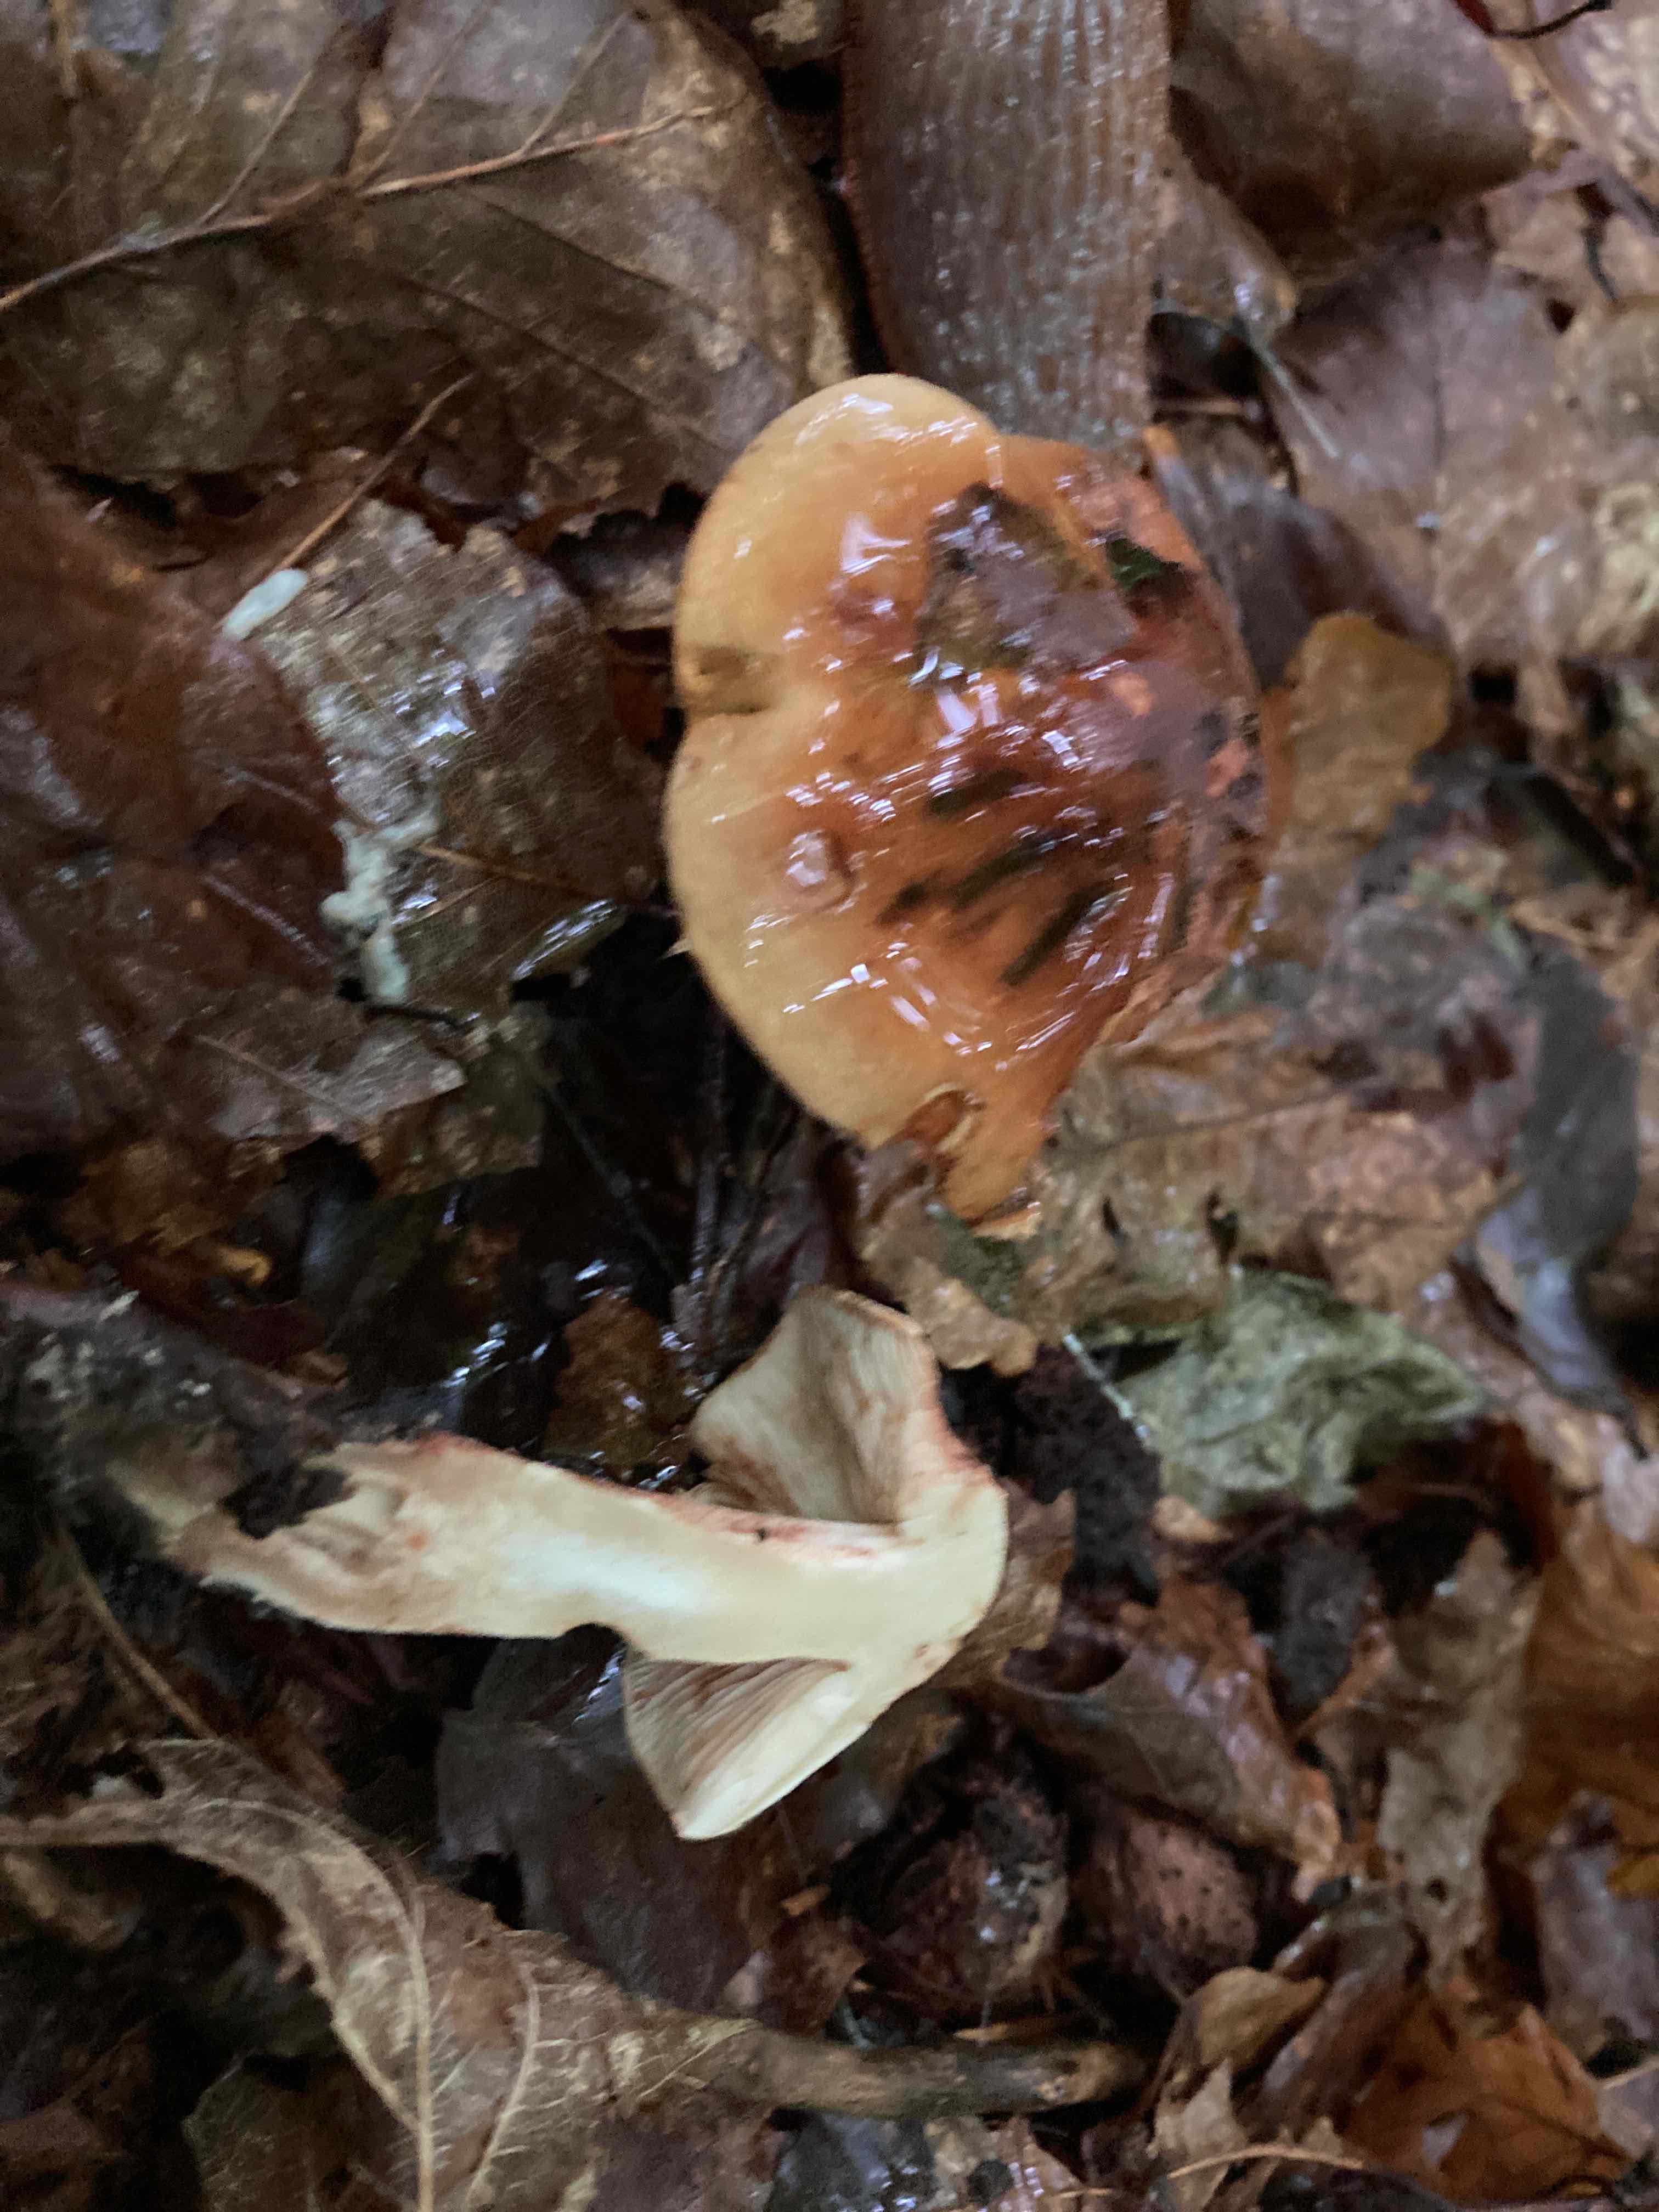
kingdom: Fungi
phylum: Basidiomycota
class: Agaricomycetes
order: Agaricales
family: Tricholomataceae
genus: Tricholoma
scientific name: Tricholoma ustale
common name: sveden ridderhat
